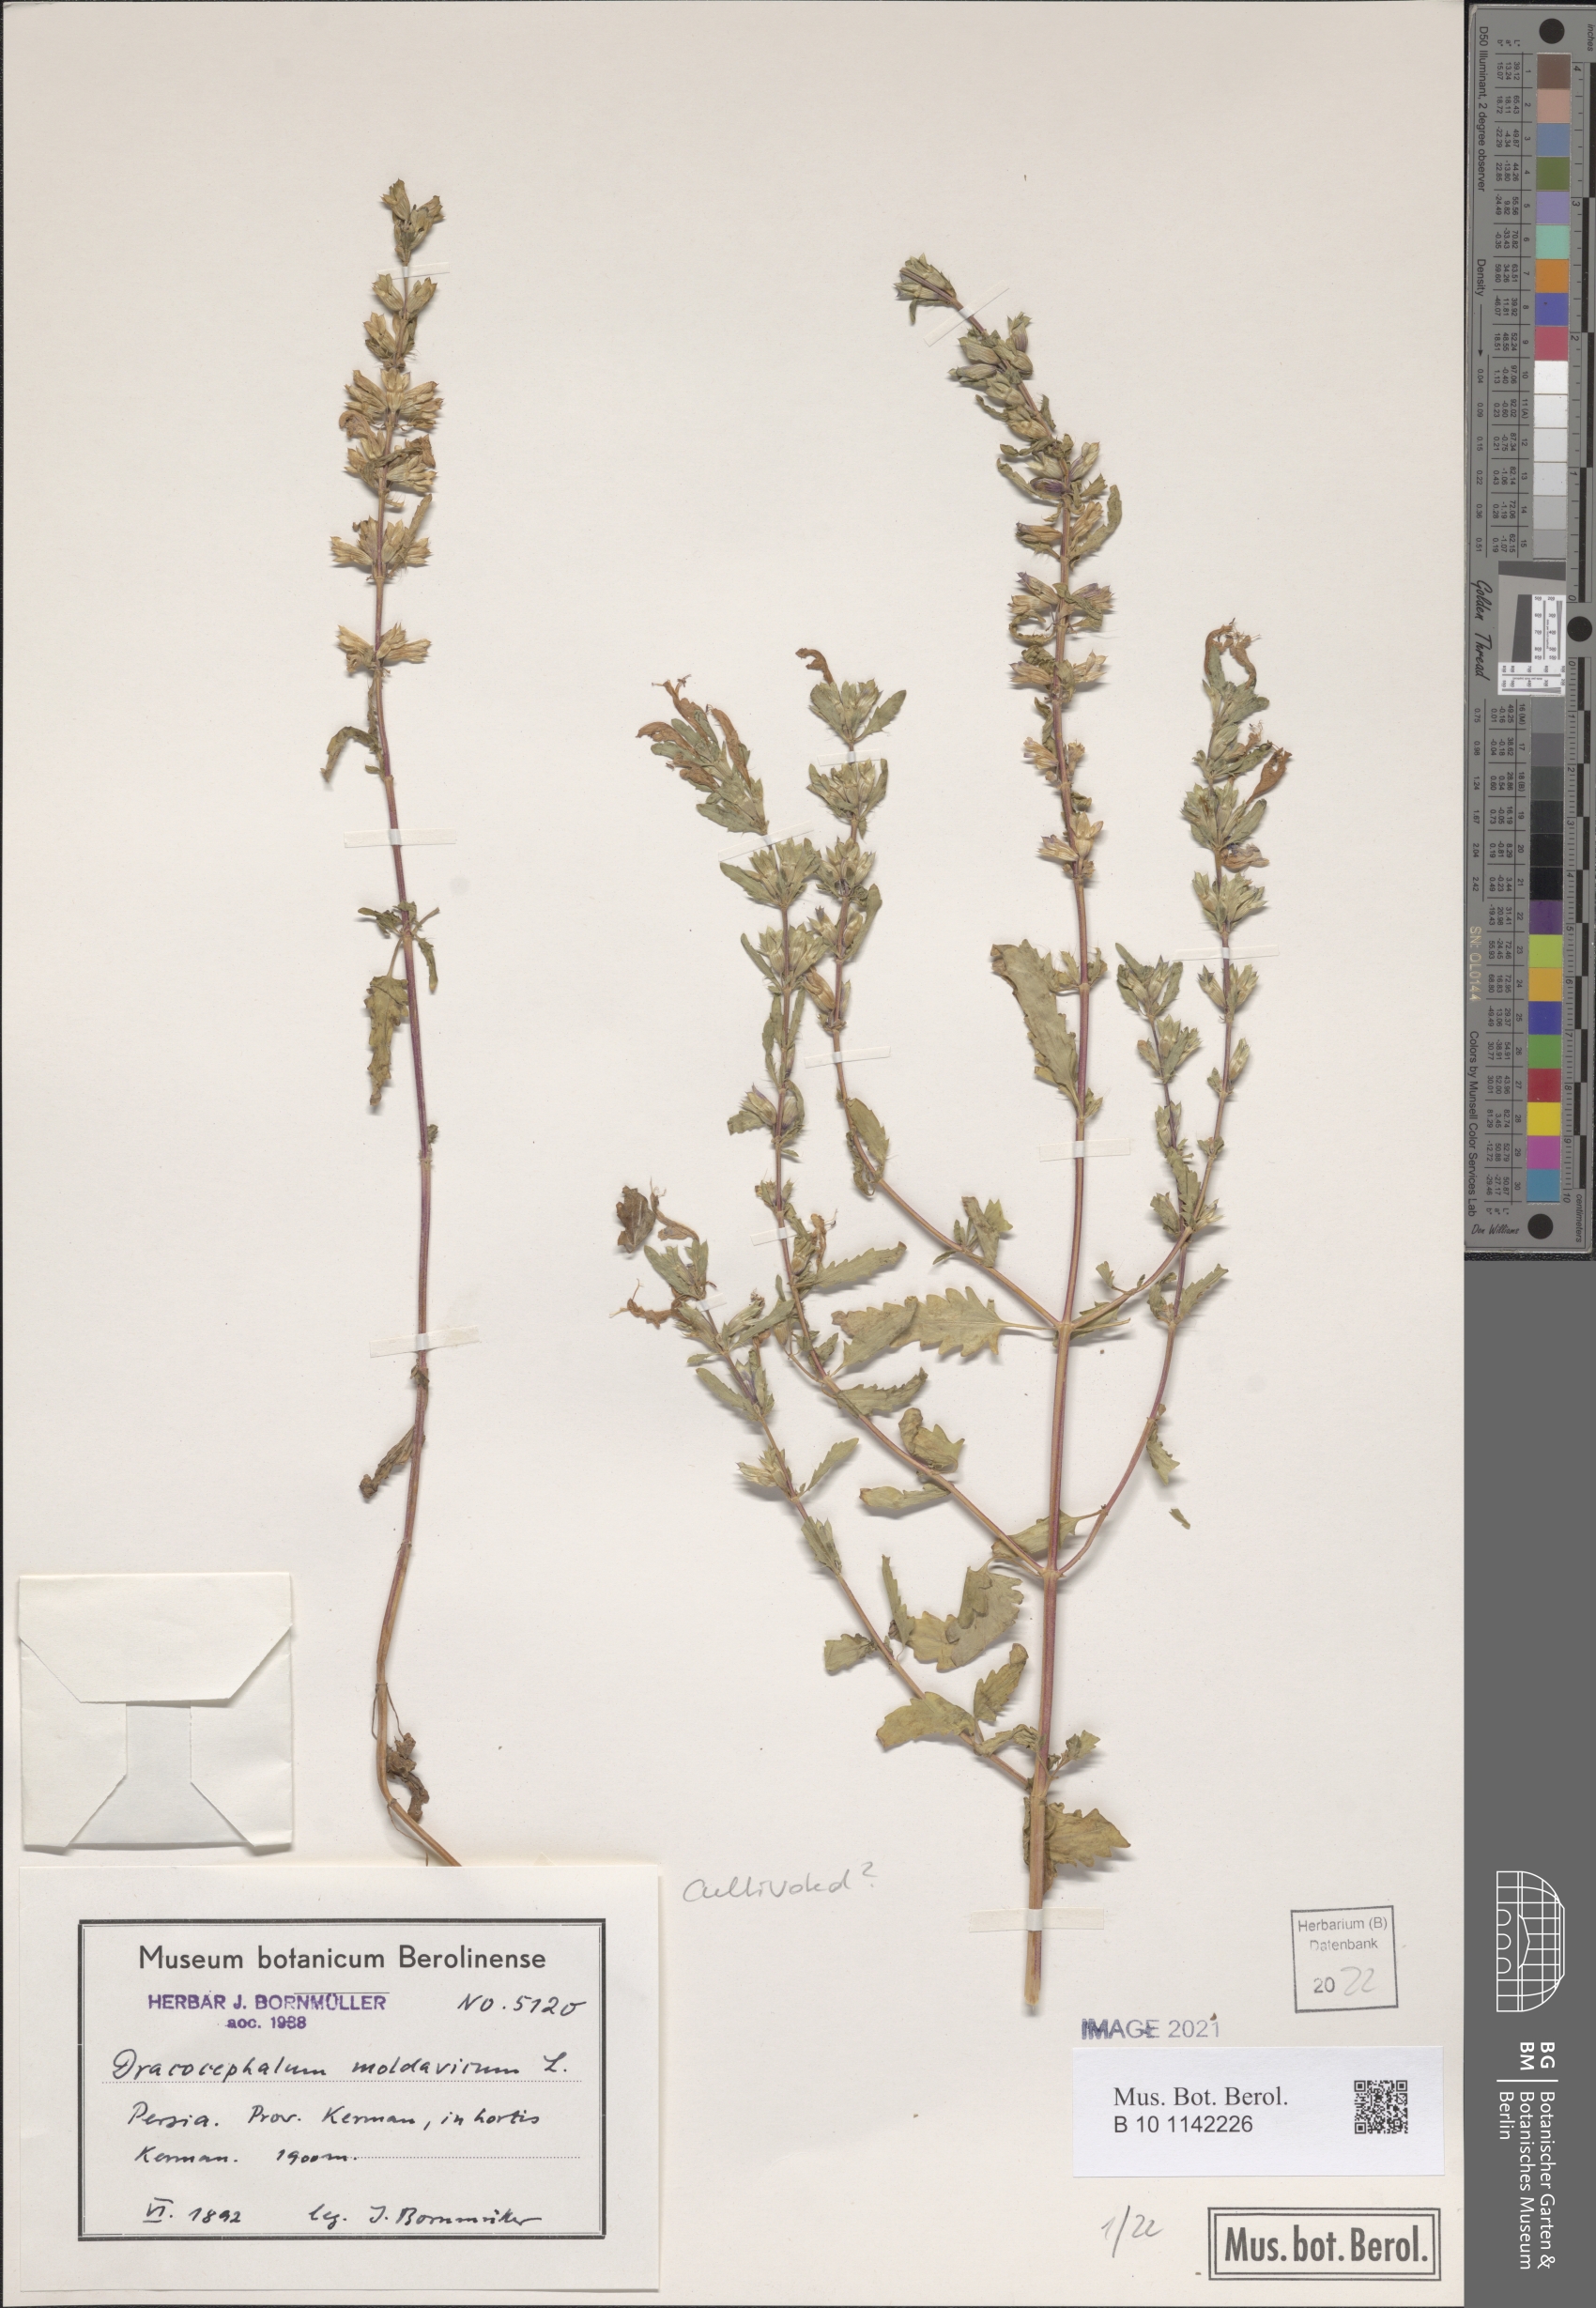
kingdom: Plantae
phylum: Tracheophyta
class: Magnoliopsida
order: Lamiales
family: Lamiaceae
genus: Dracocephalum
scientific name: Dracocephalum moldavica
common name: Moldavian dragonhead
